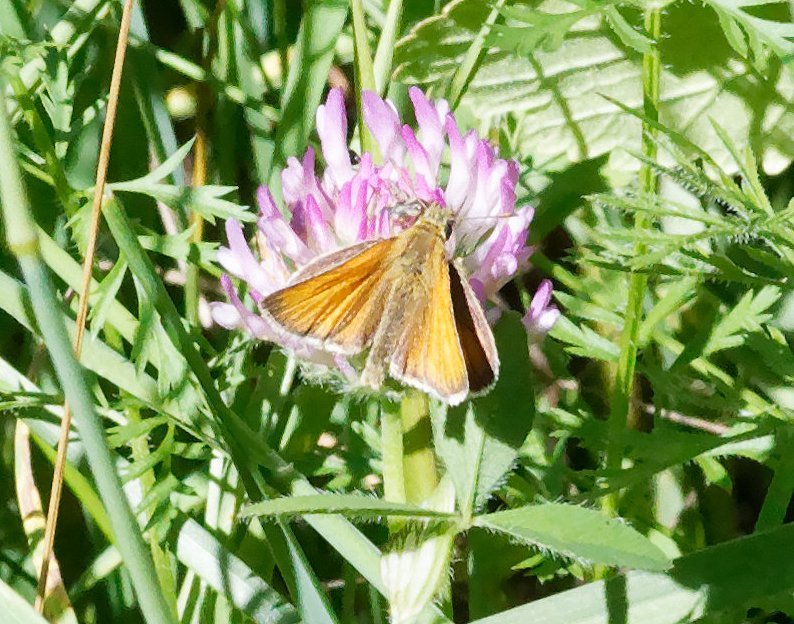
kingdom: Animalia
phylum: Arthropoda
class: Insecta
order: Lepidoptera
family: Hesperiidae
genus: Thymelicus
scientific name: Thymelicus lineola
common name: European Skipper
